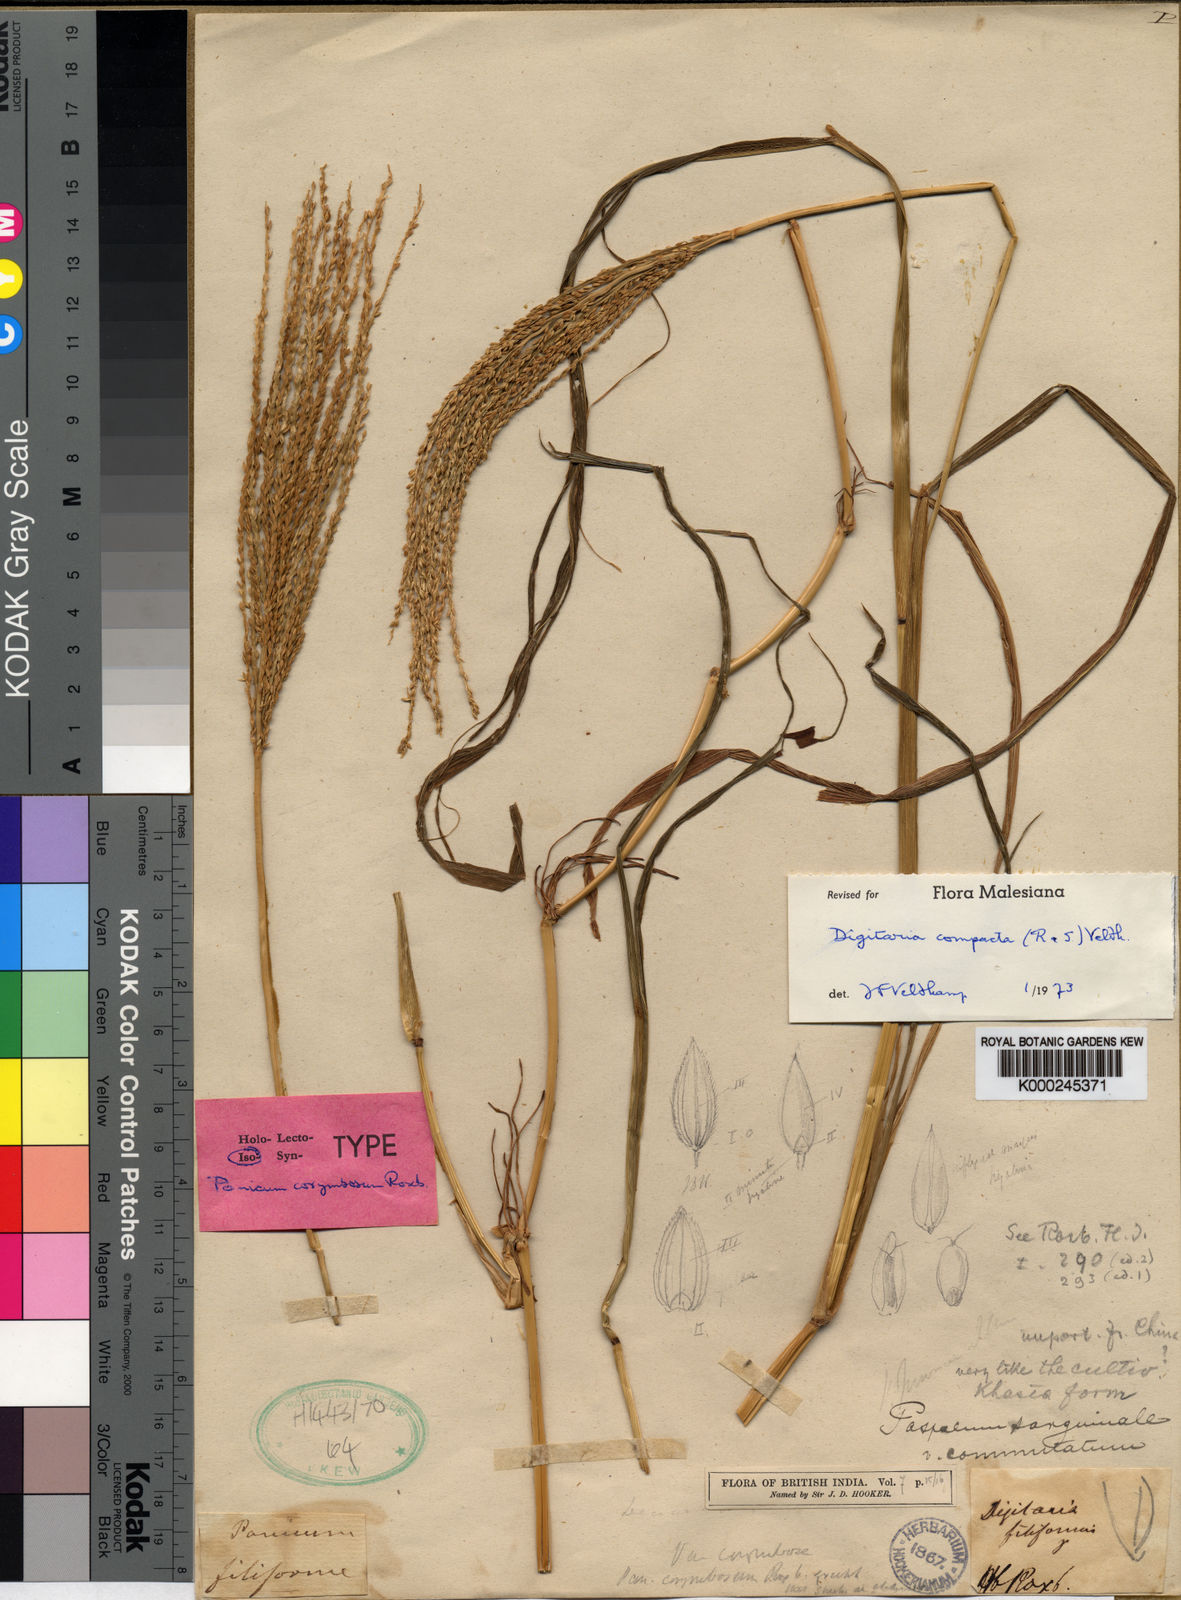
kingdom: Plantae
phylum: Tracheophyta
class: Liliopsida
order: Poales
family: Poaceae
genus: Digitaria
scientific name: Digitaria compacta
